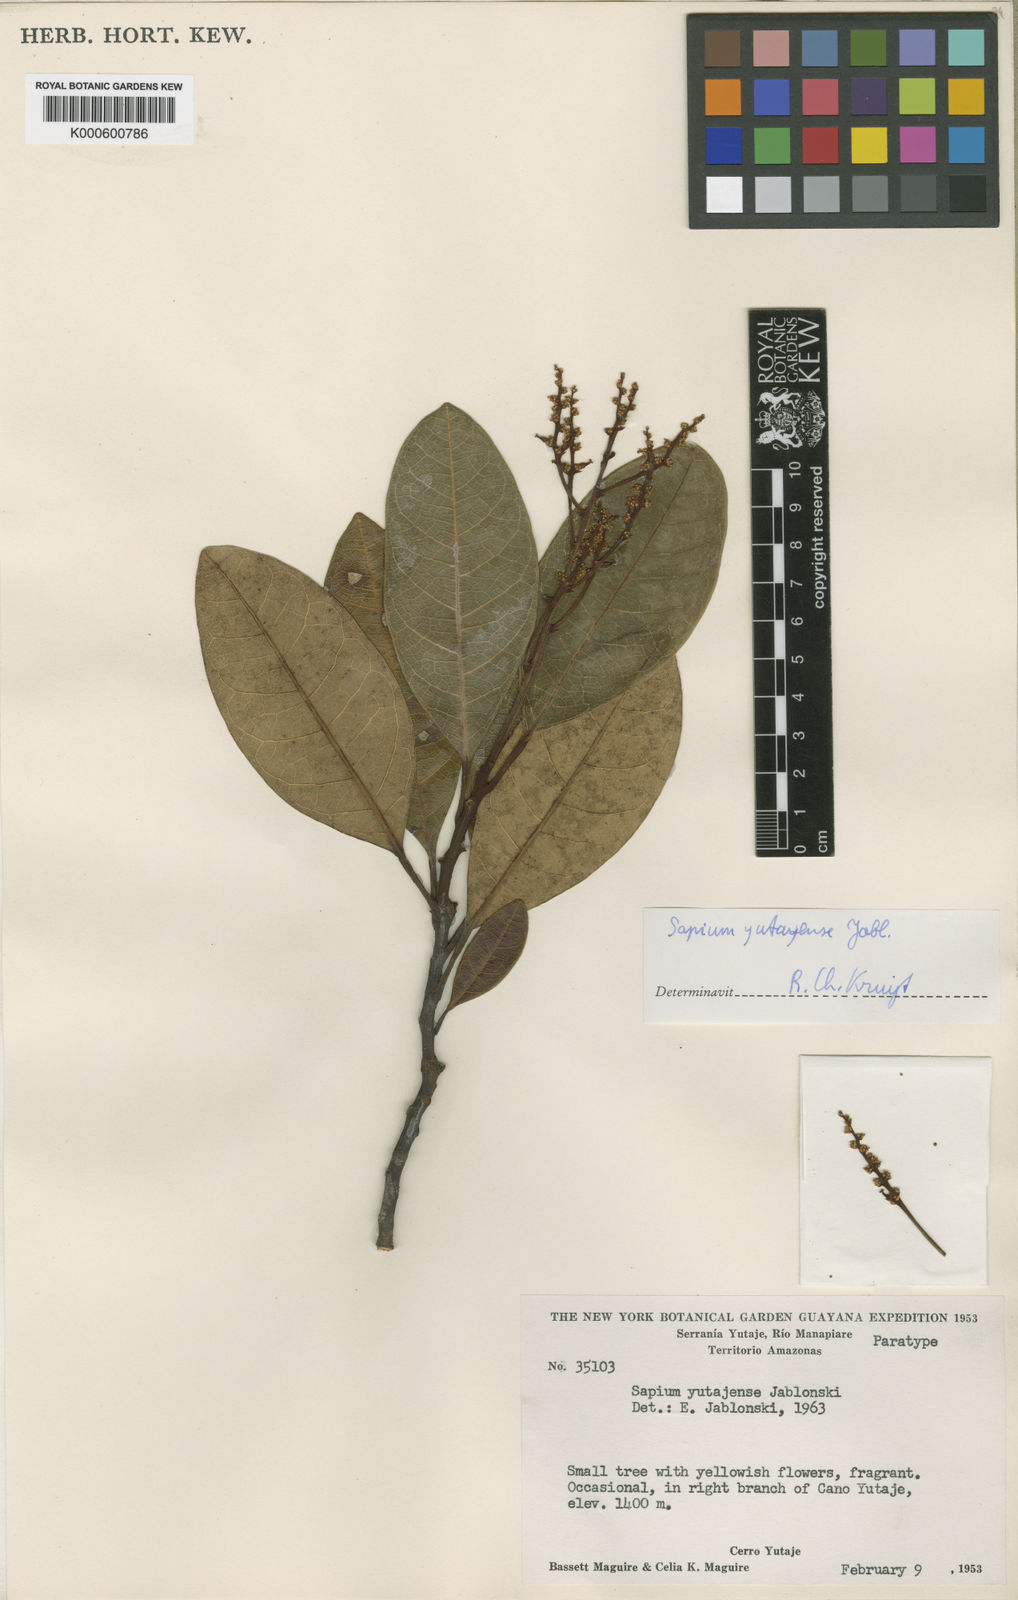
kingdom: Plantae
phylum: Tracheophyta
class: Magnoliopsida
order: Malpighiales
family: Euphorbiaceae
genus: Dendrothrix
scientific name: Dendrothrix yutajensis
